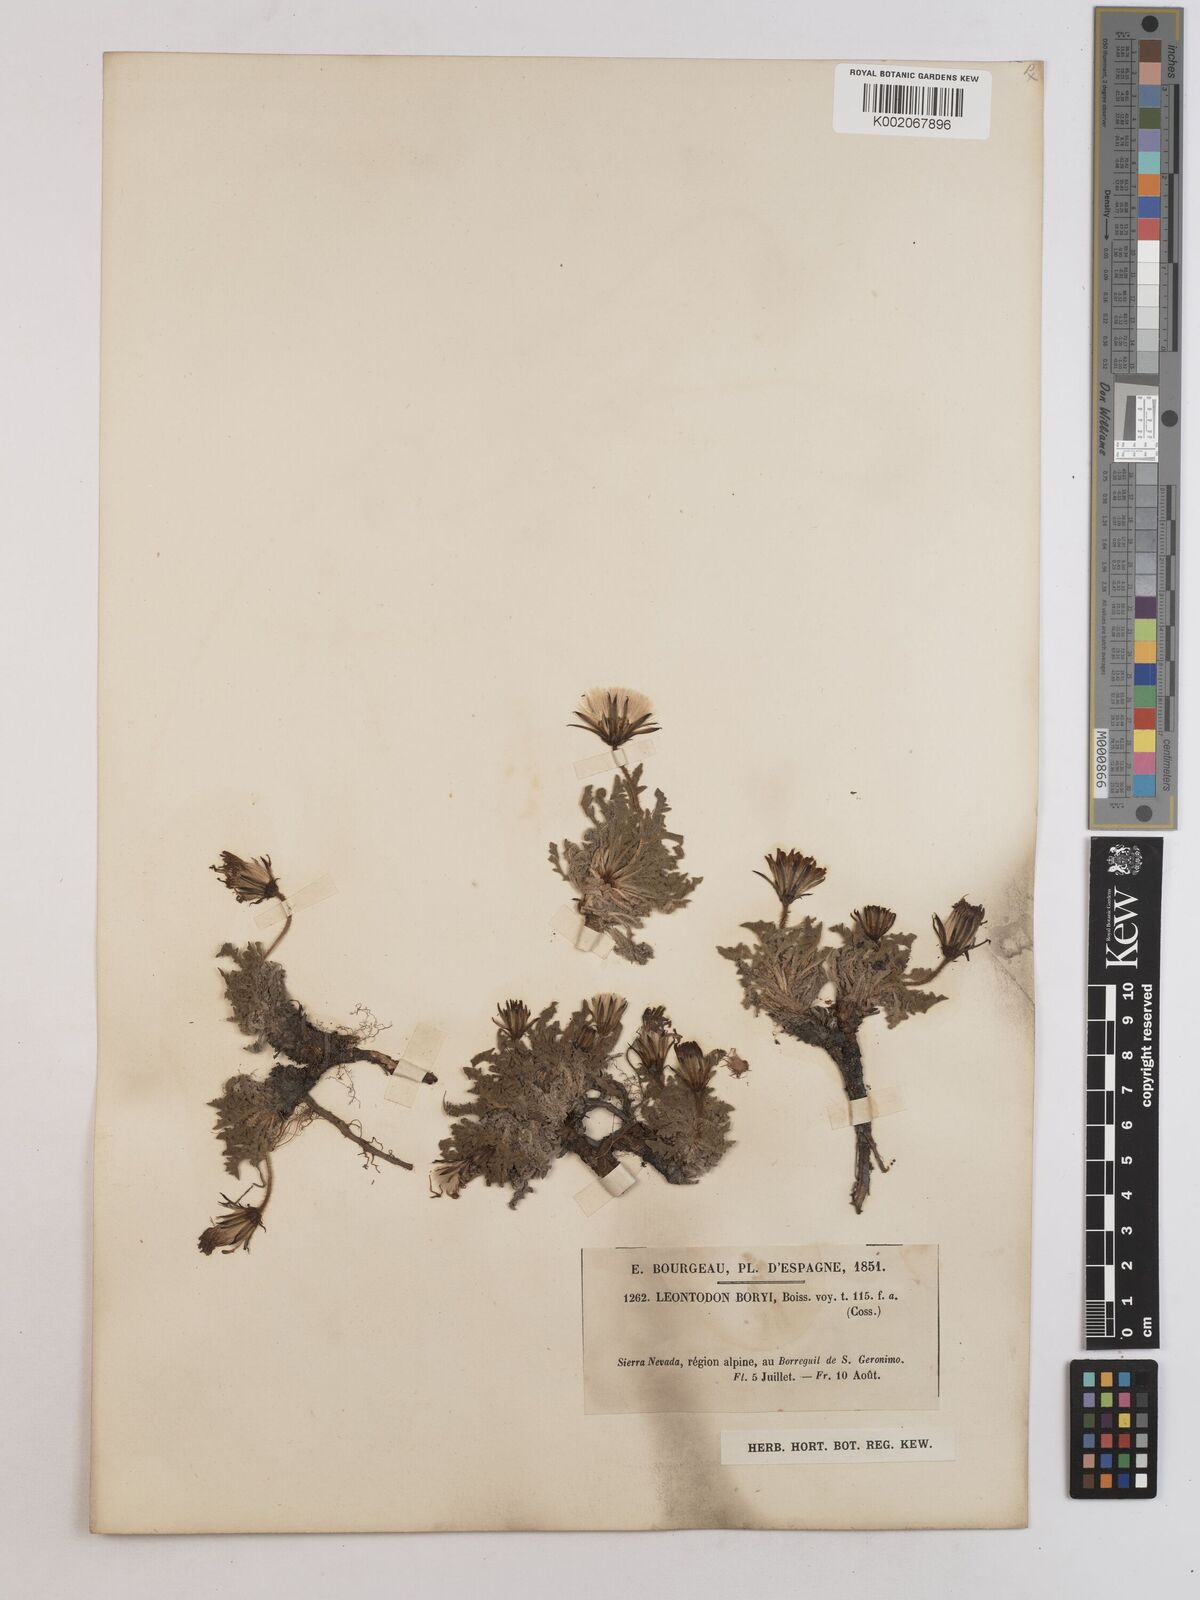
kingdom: Plantae
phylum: Tracheophyta
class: Magnoliopsida
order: Asterales
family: Asteraceae
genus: Leontodon
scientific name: Leontodon boryi
